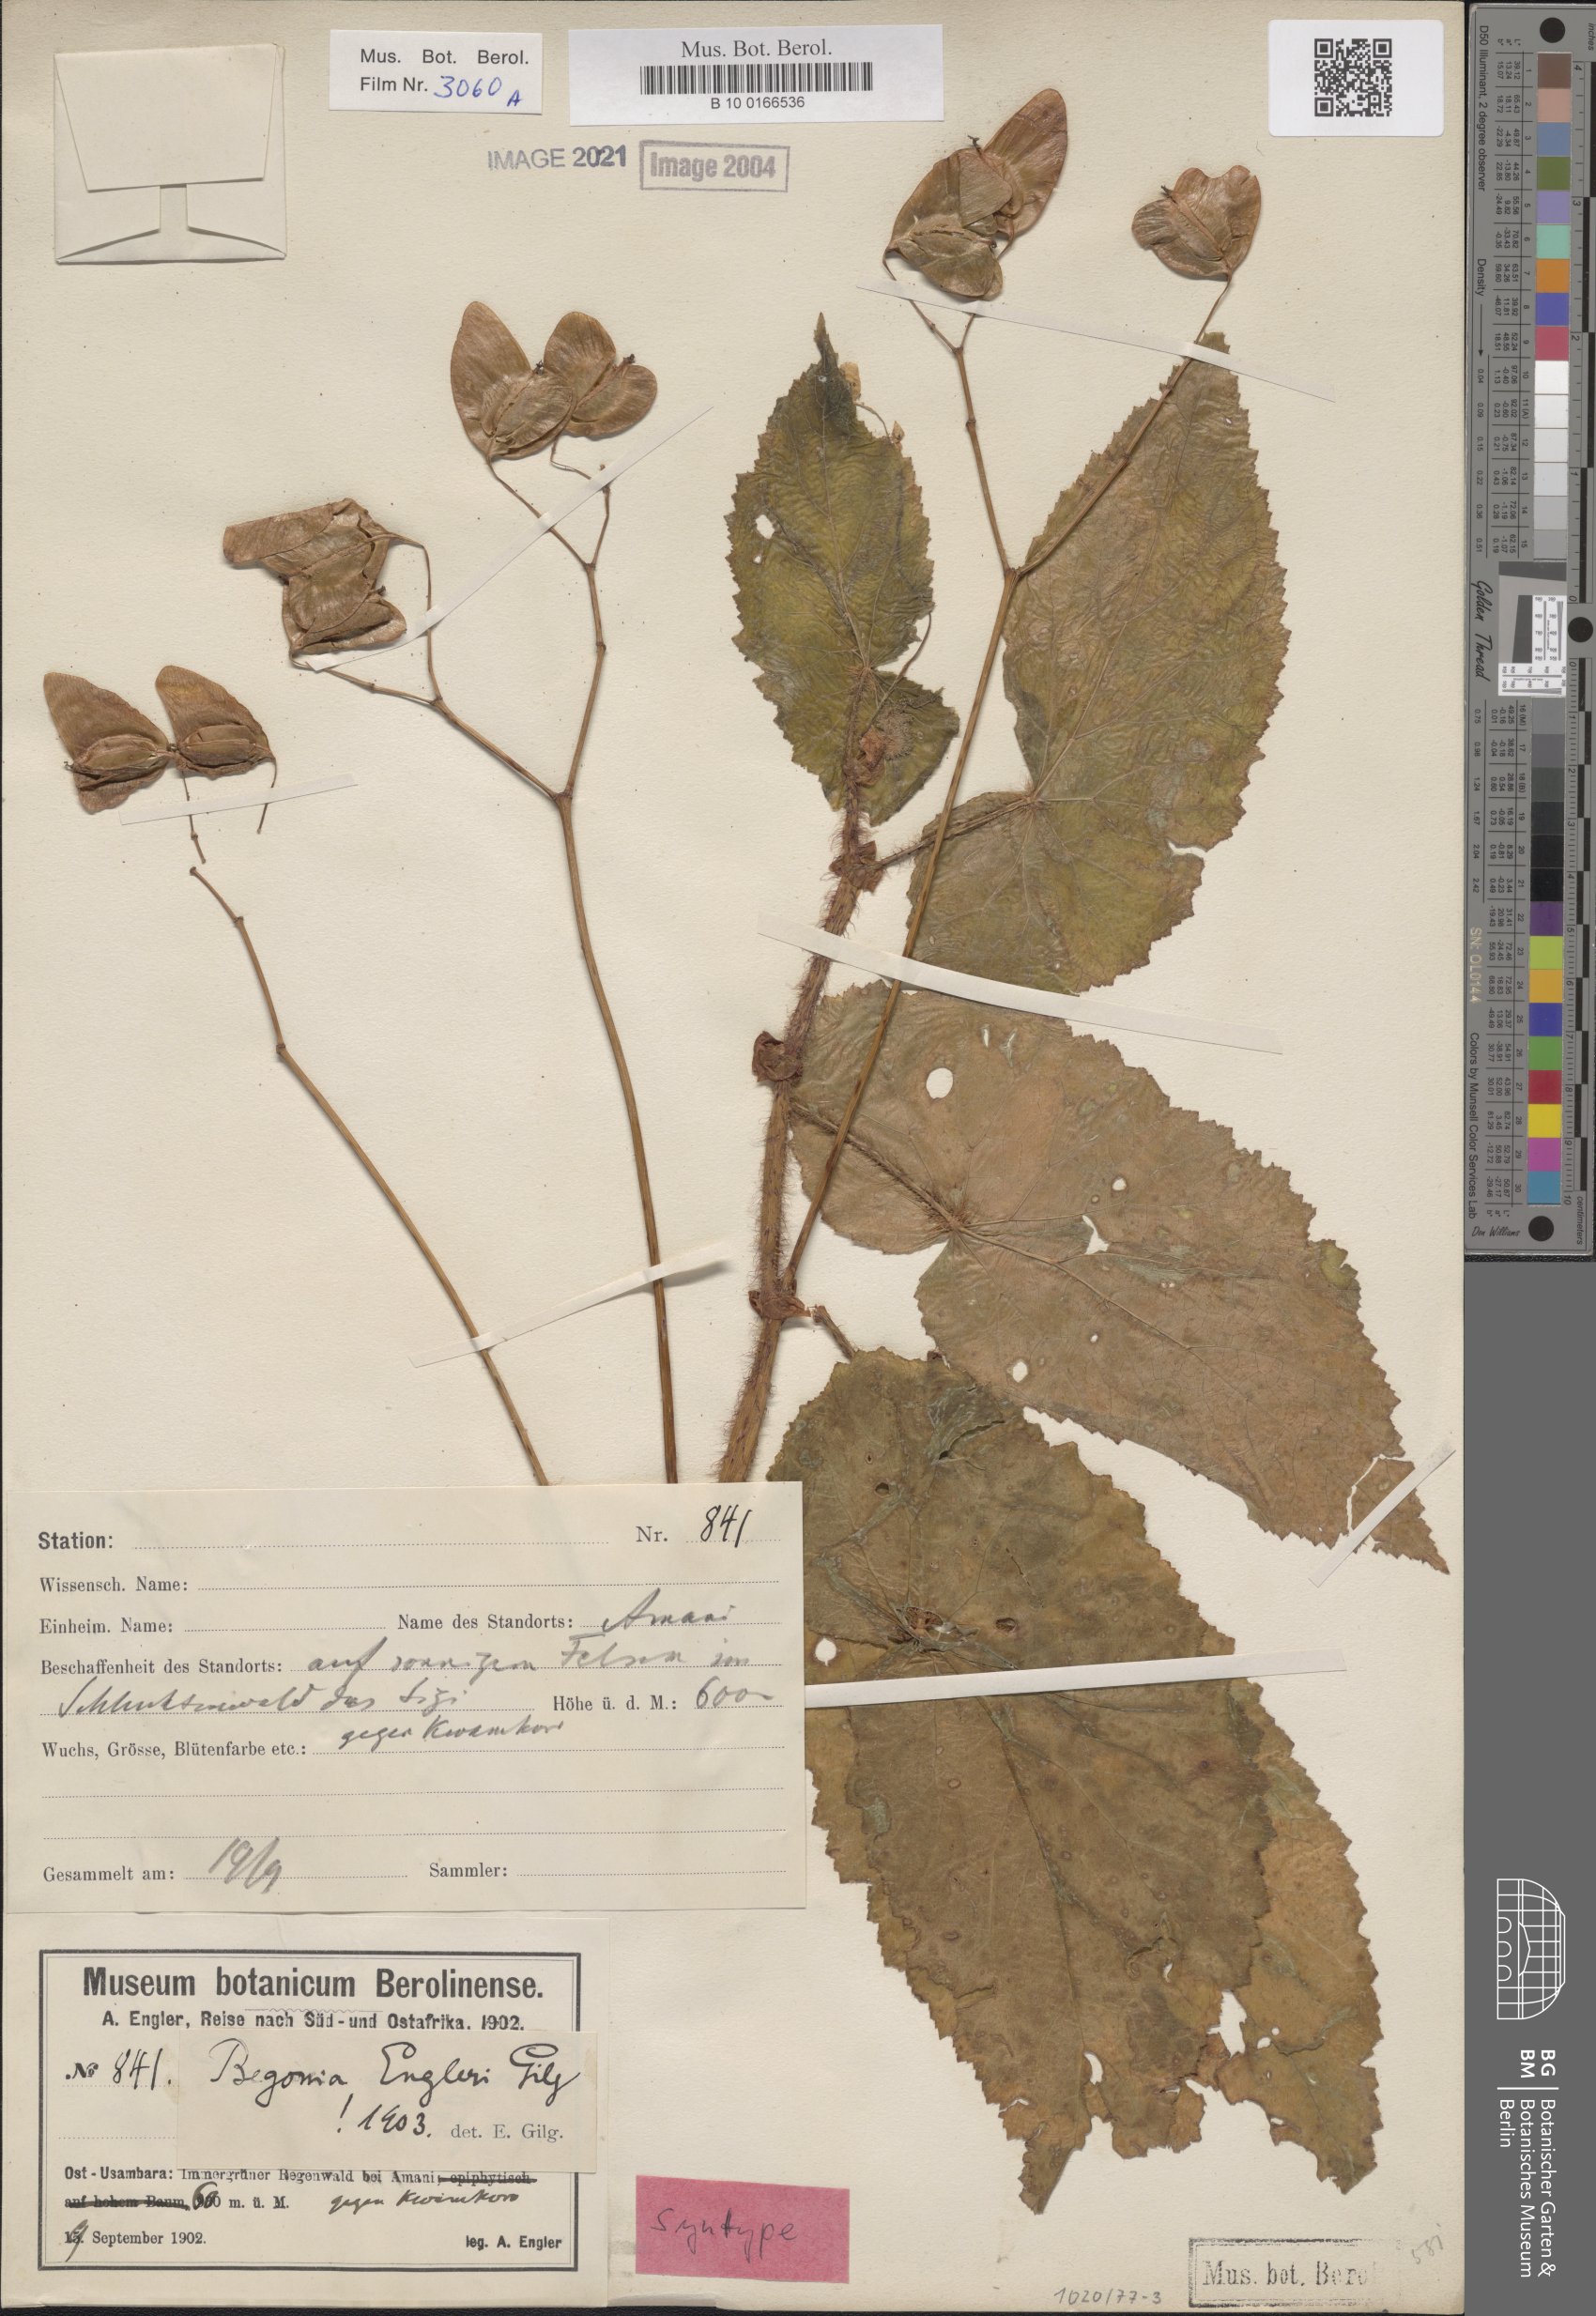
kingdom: Plantae
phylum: Tracheophyta
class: Magnoliopsida
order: Cucurbitales
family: Begoniaceae
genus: Begonia
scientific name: Begonia engleri
